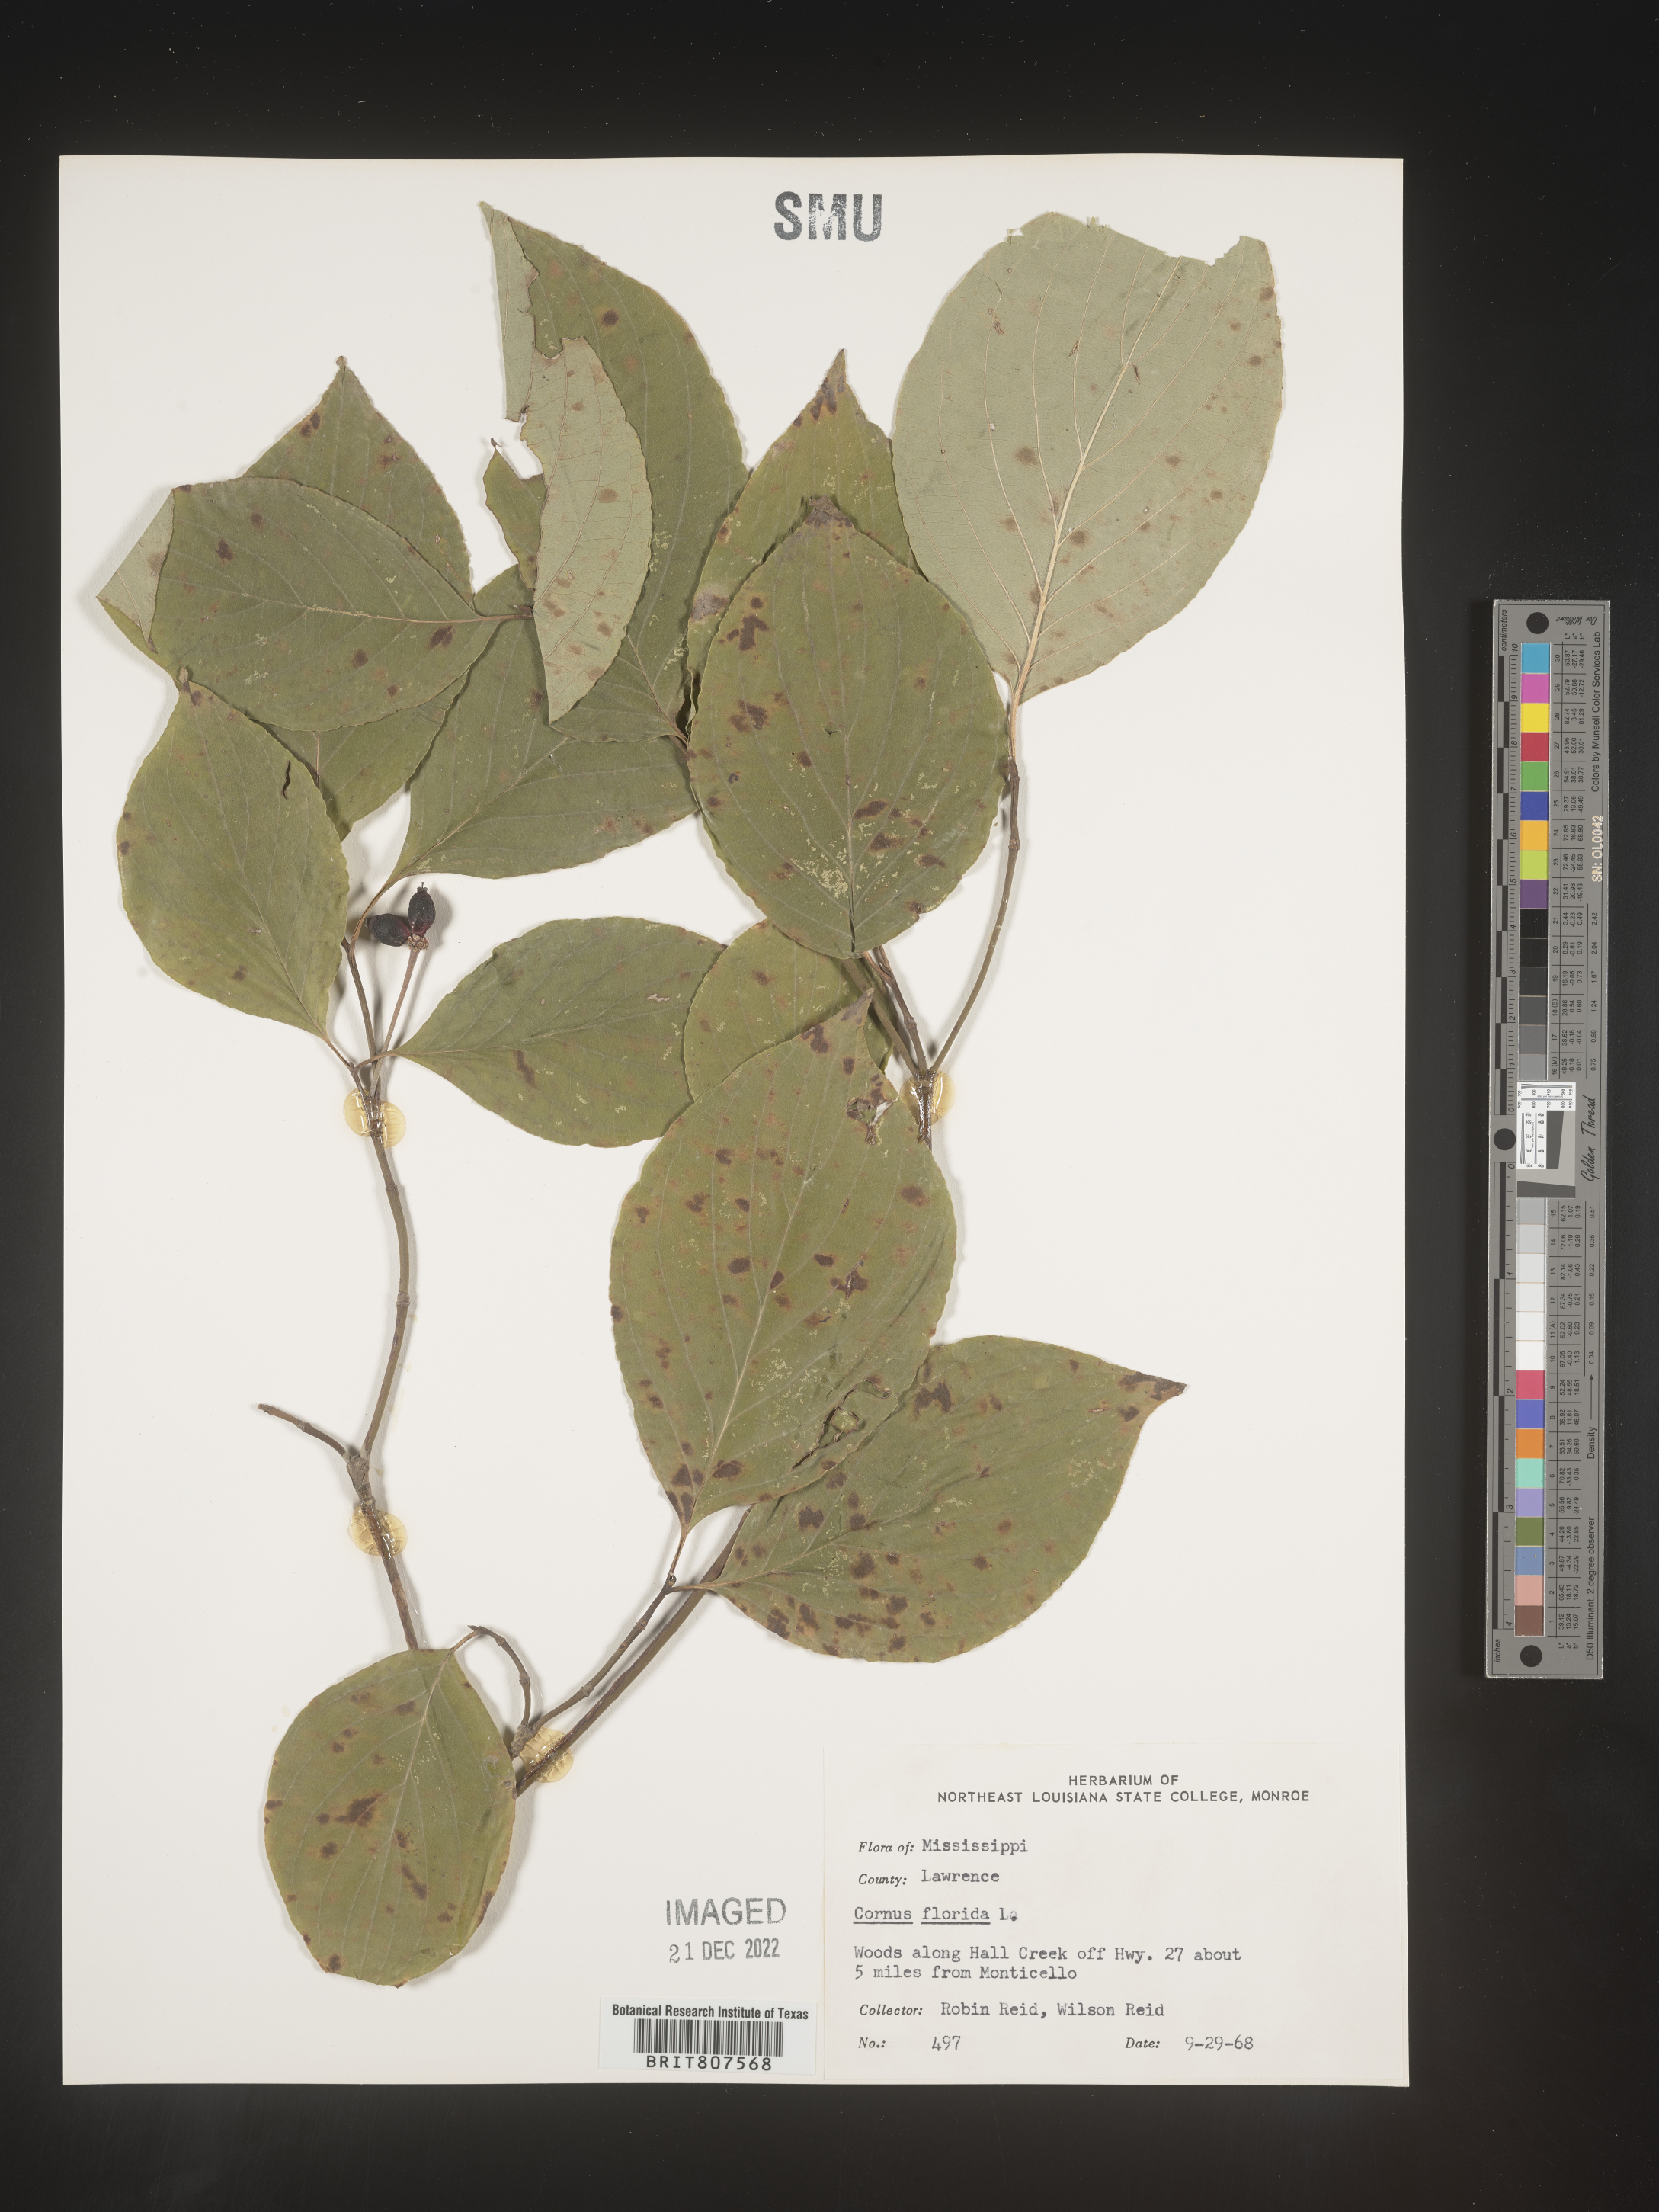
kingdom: Plantae
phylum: Tracheophyta
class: Magnoliopsida
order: Cornales
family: Cornaceae
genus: Cornus
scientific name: Cornus florida
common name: Flowering dogwood
